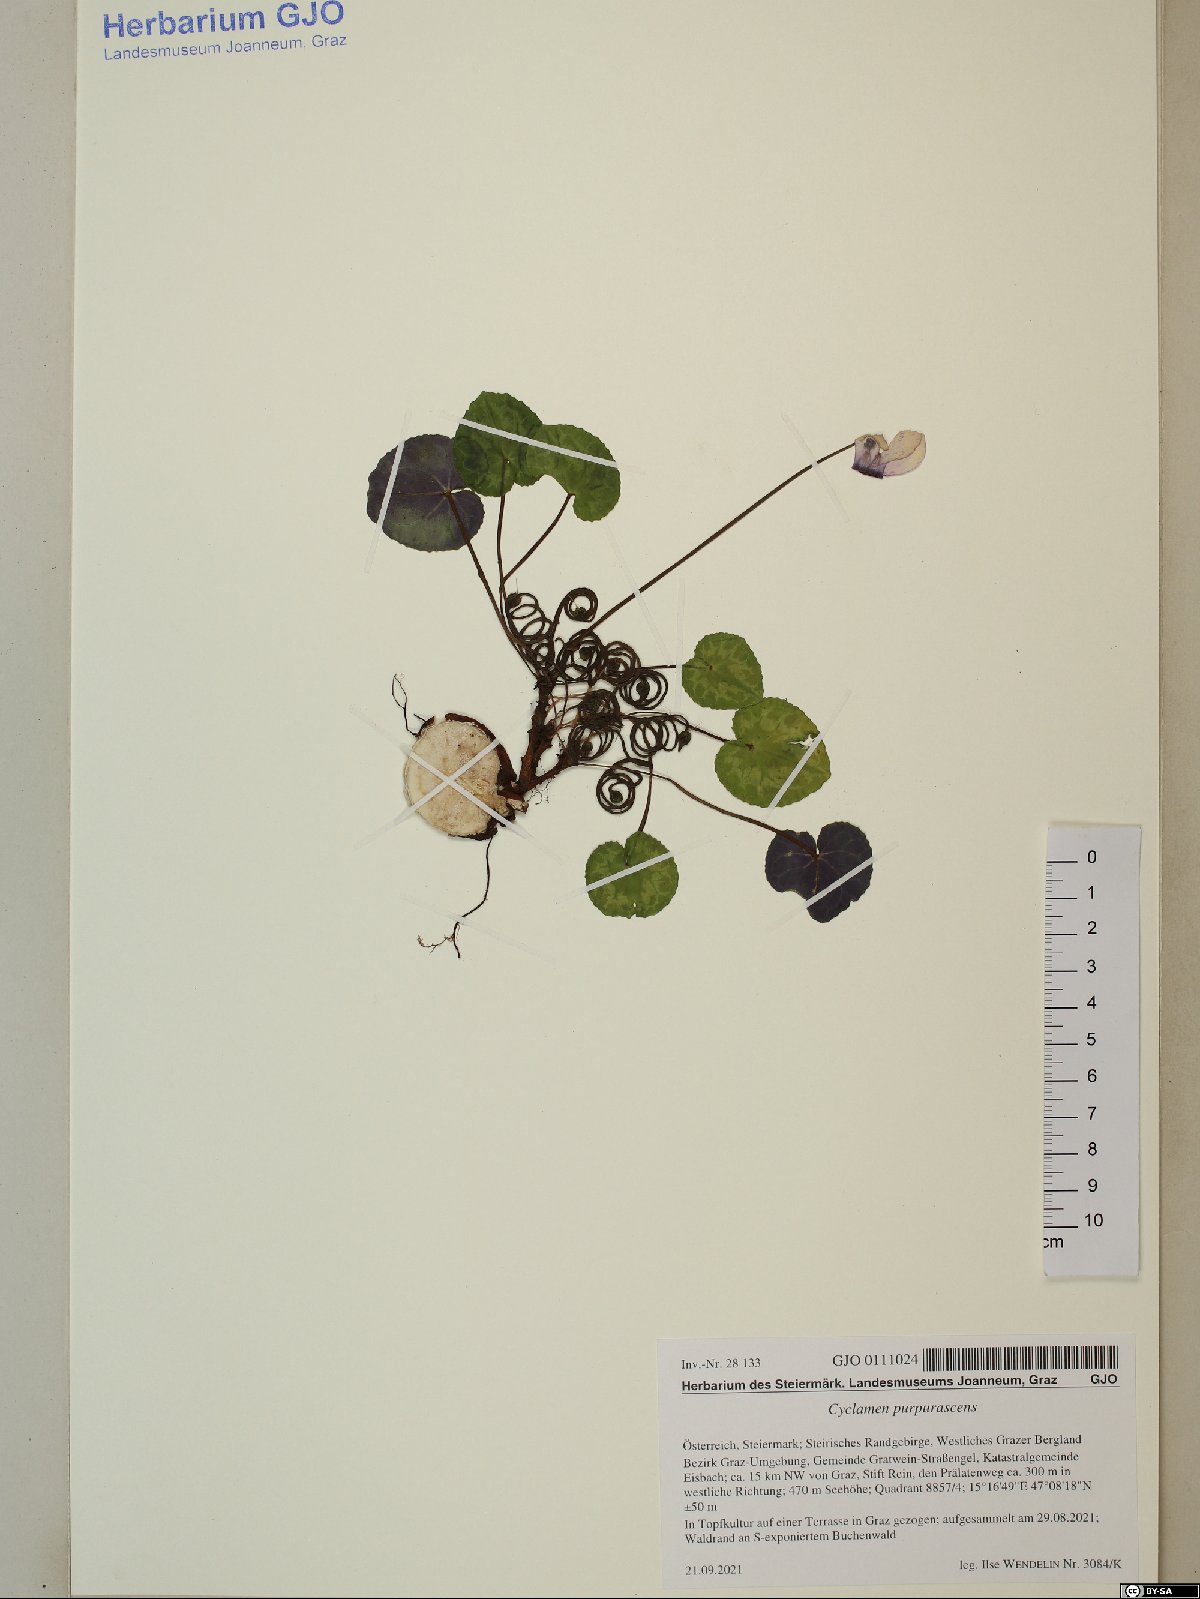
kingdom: Plantae
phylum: Tracheophyta
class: Magnoliopsida
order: Ericales
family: Primulaceae
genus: Cyclamen
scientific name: Cyclamen purpurascens
